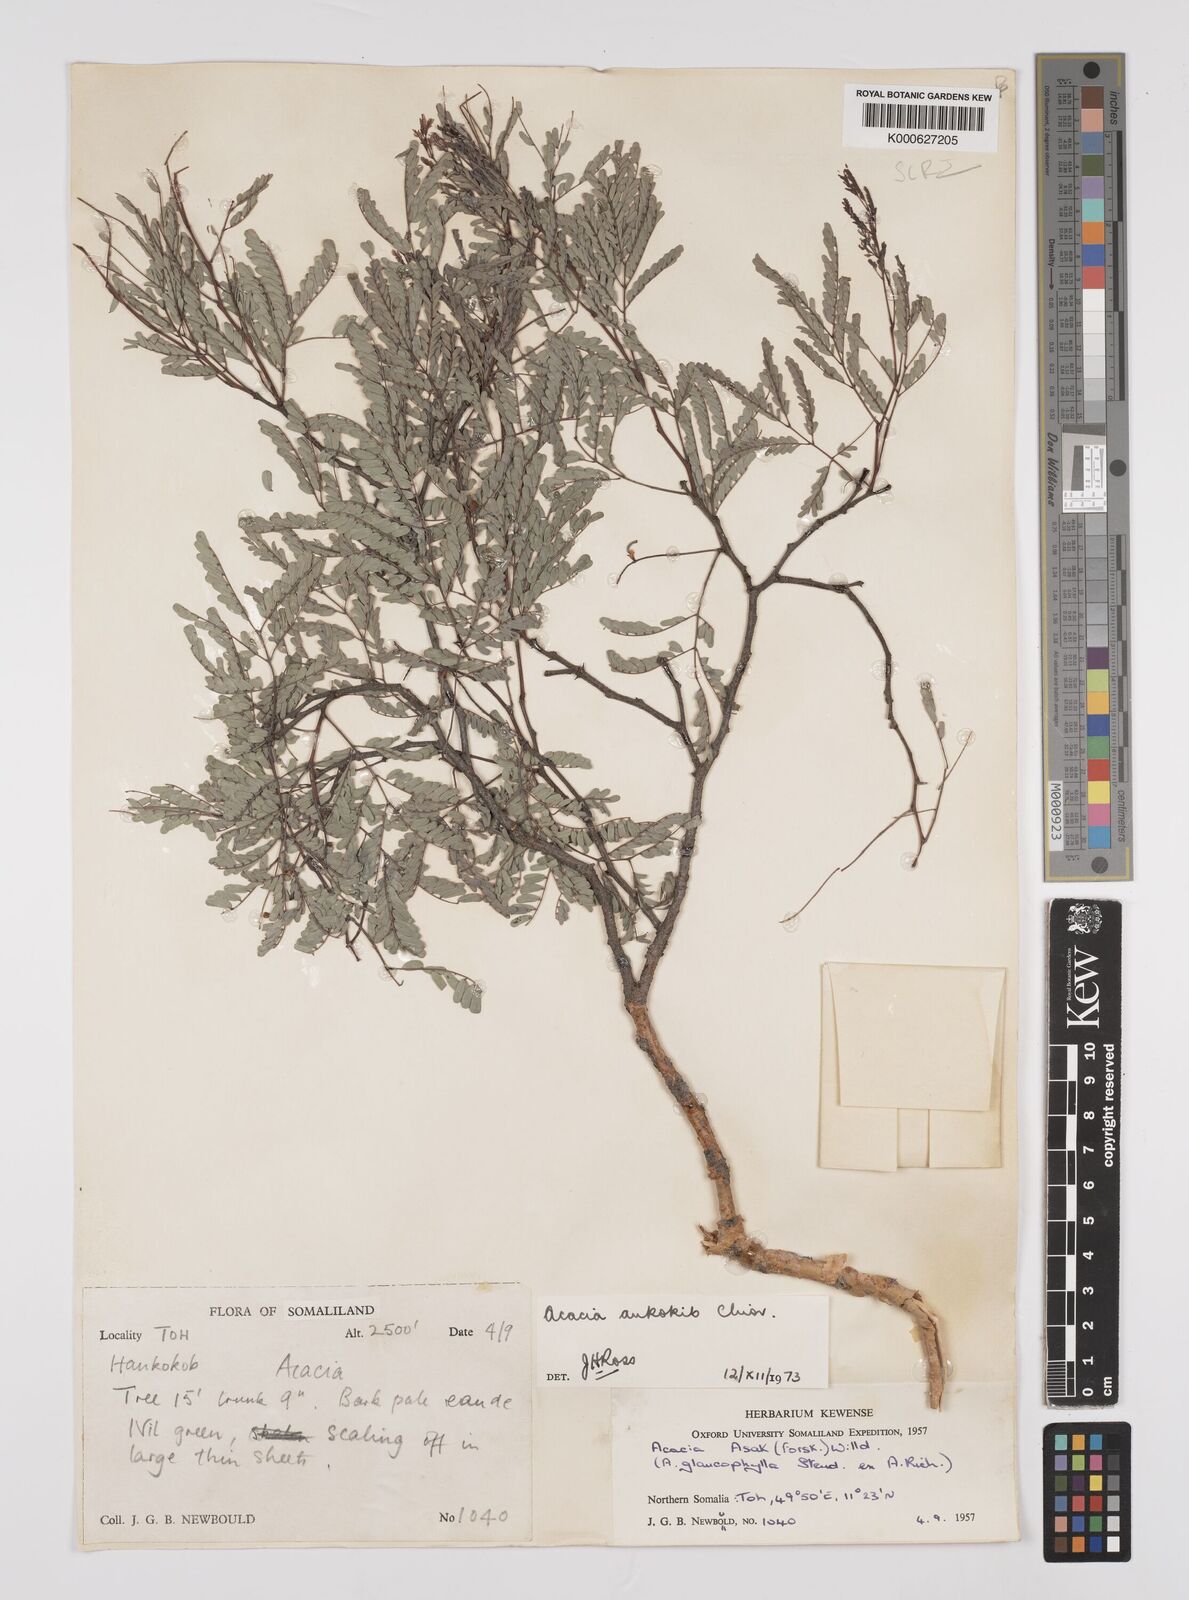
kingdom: Plantae
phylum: Tracheophyta
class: Magnoliopsida
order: Fabales
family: Fabaceae
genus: Senegalia
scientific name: Senegalia ankokib
